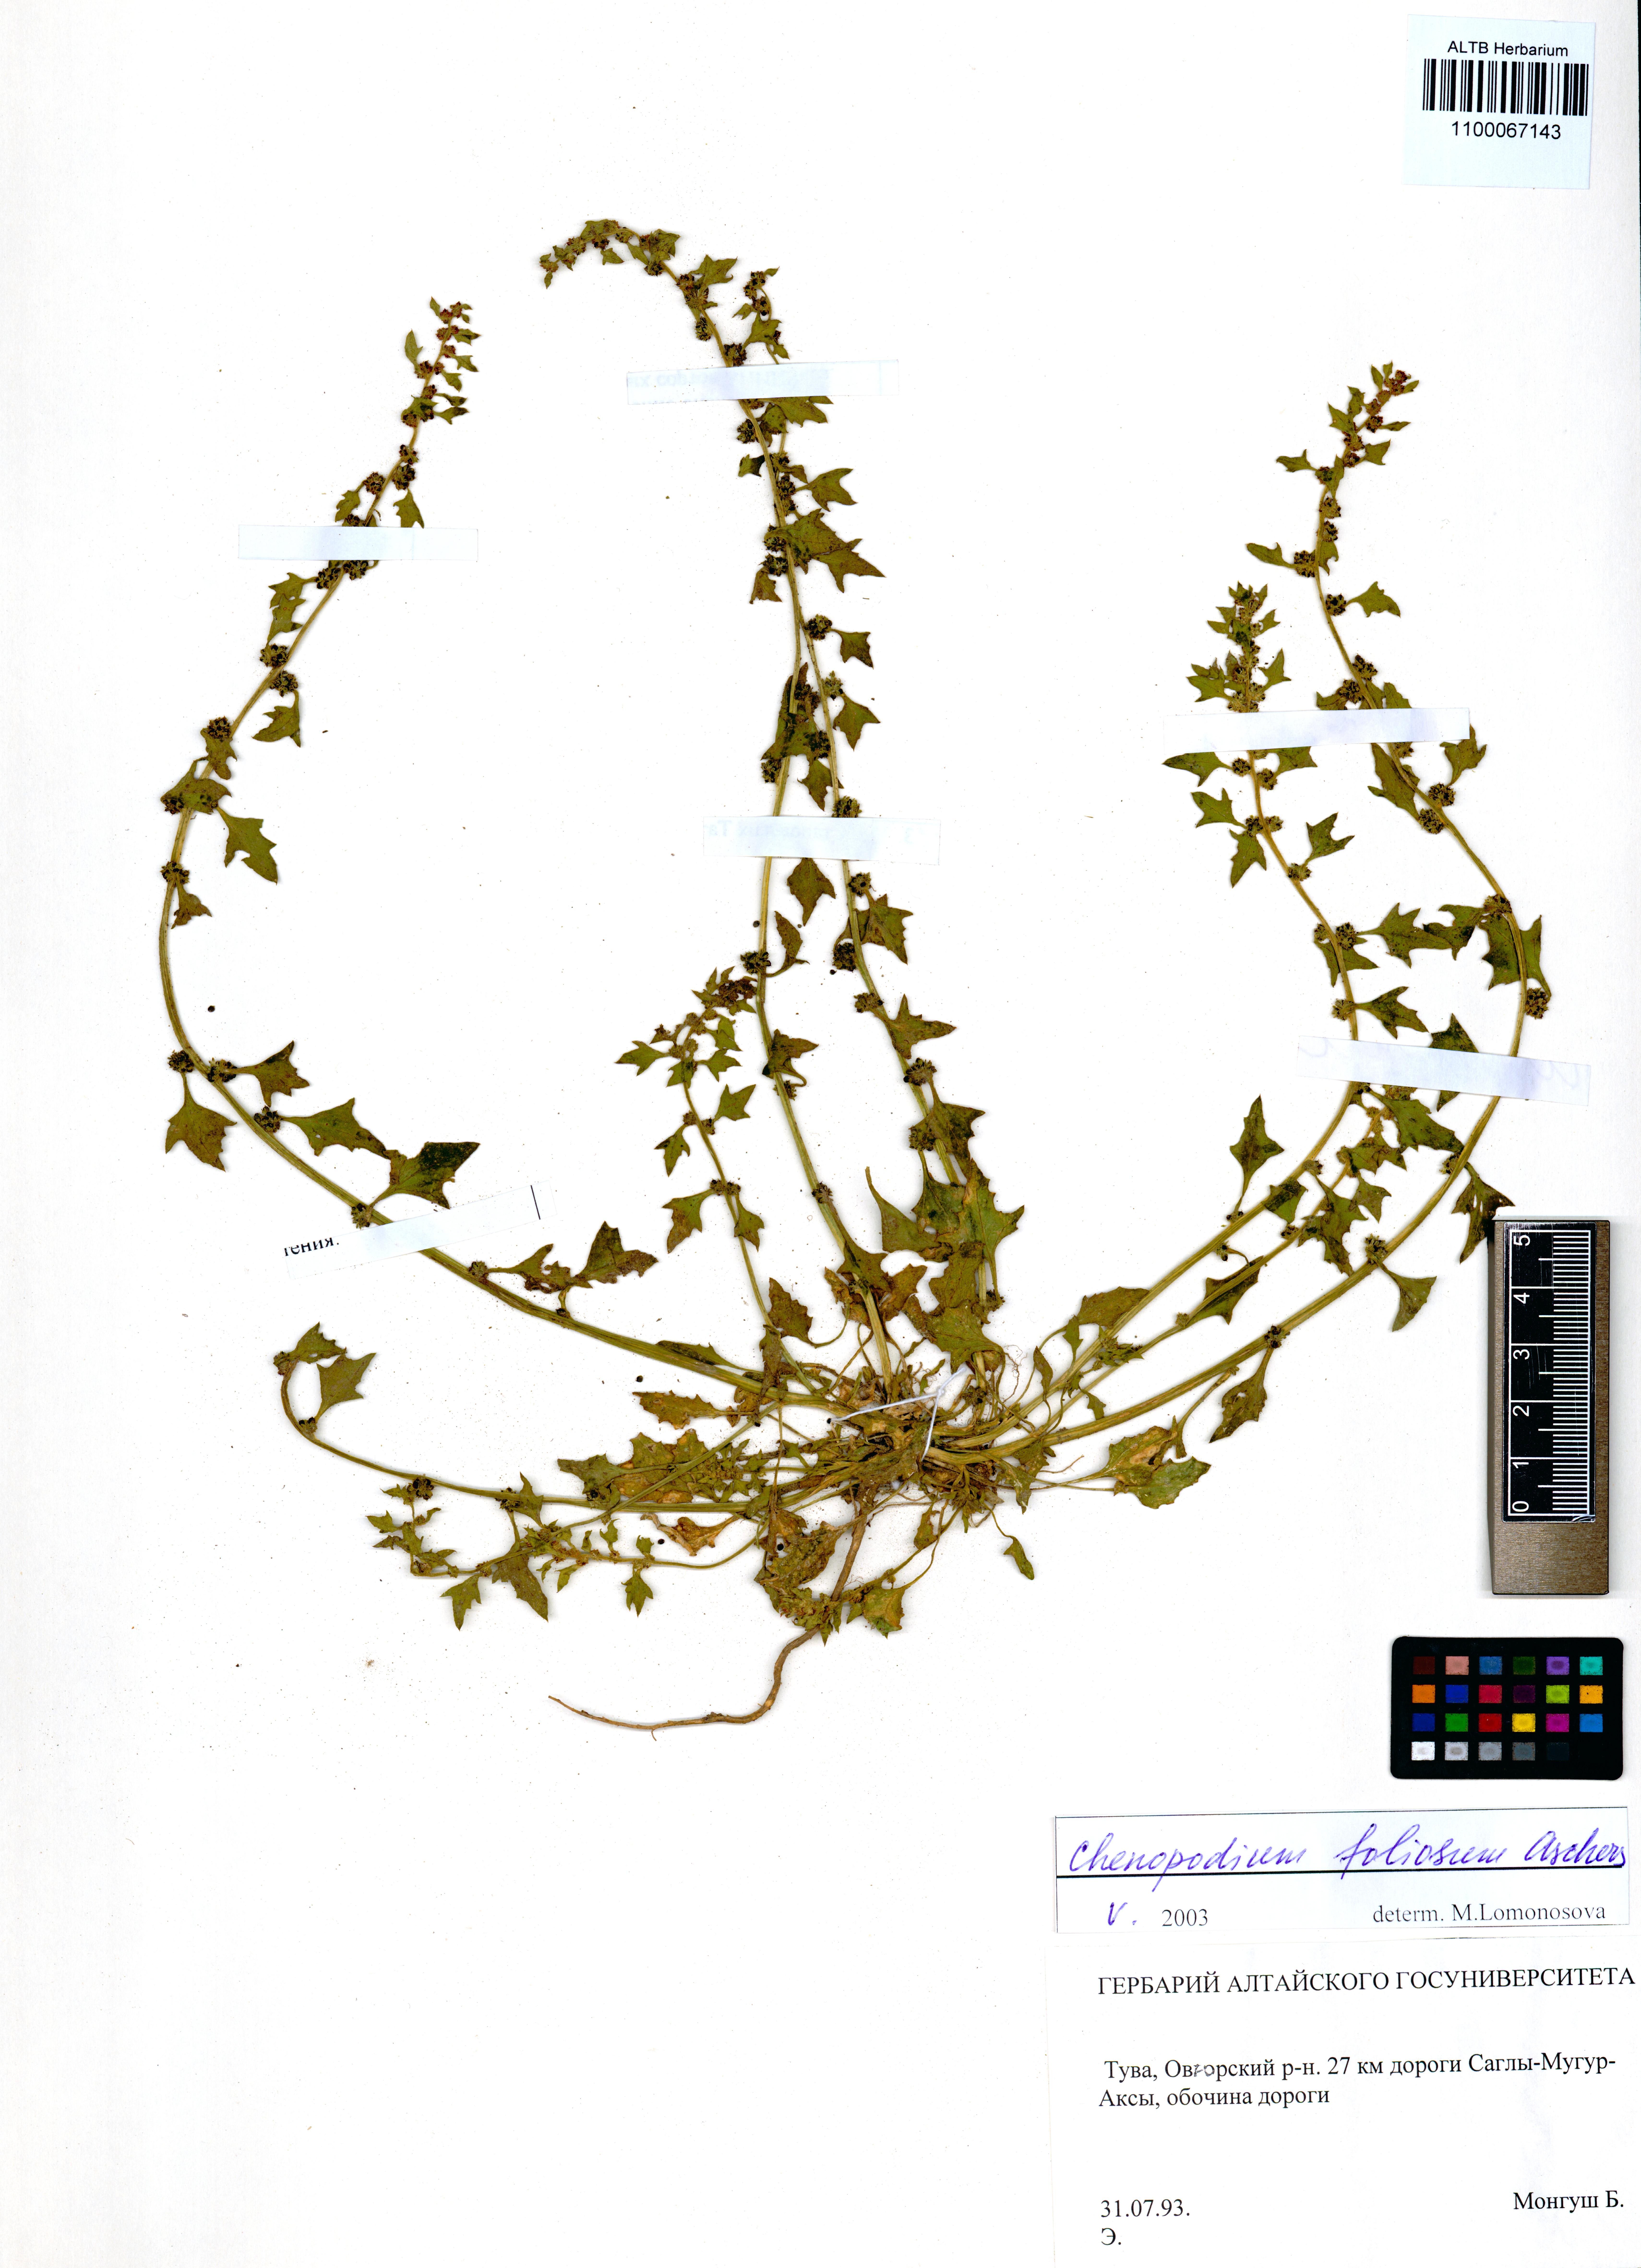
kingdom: Plantae
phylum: Tracheophyta
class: Magnoliopsida
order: Caryophyllales
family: Amaranthaceae
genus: Blitum
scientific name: Blitum virgatum
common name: Strawberry goosefoot
